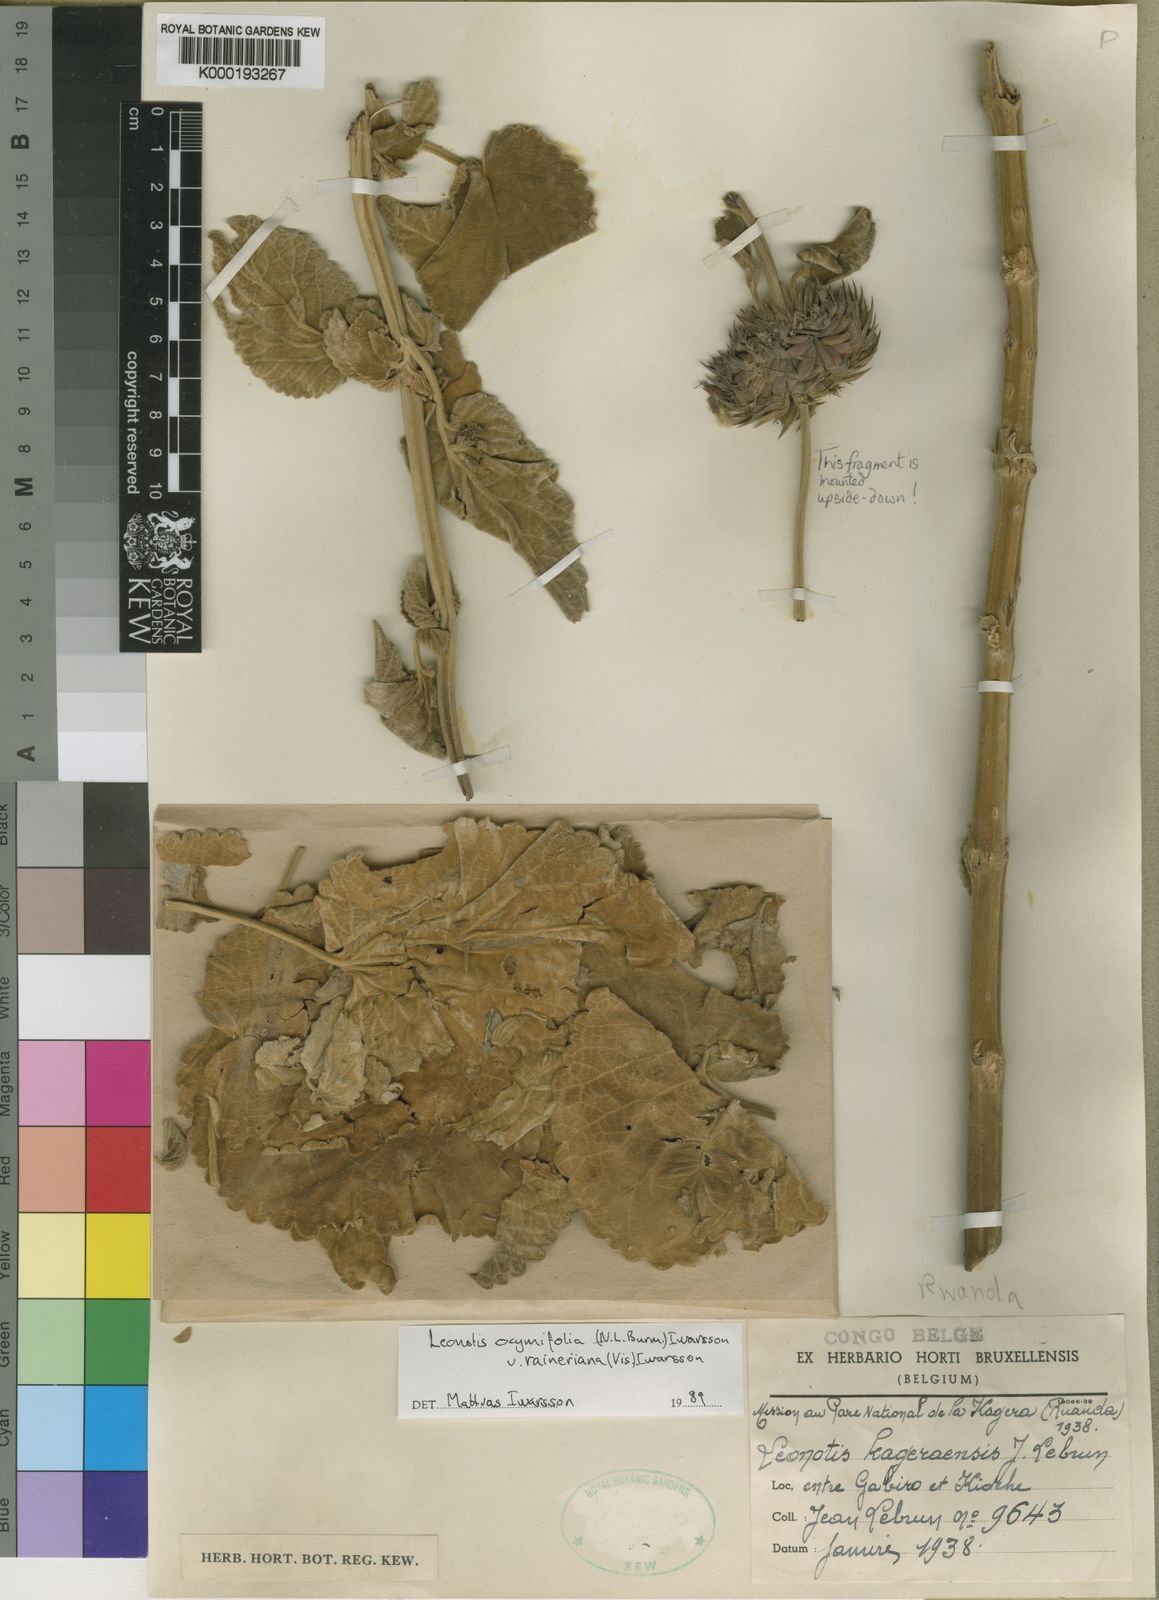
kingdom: Plantae
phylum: Tracheophyta
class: Magnoliopsida
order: Lamiales
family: Lamiaceae
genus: Leonotis
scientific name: Leonotis ocymifolia
